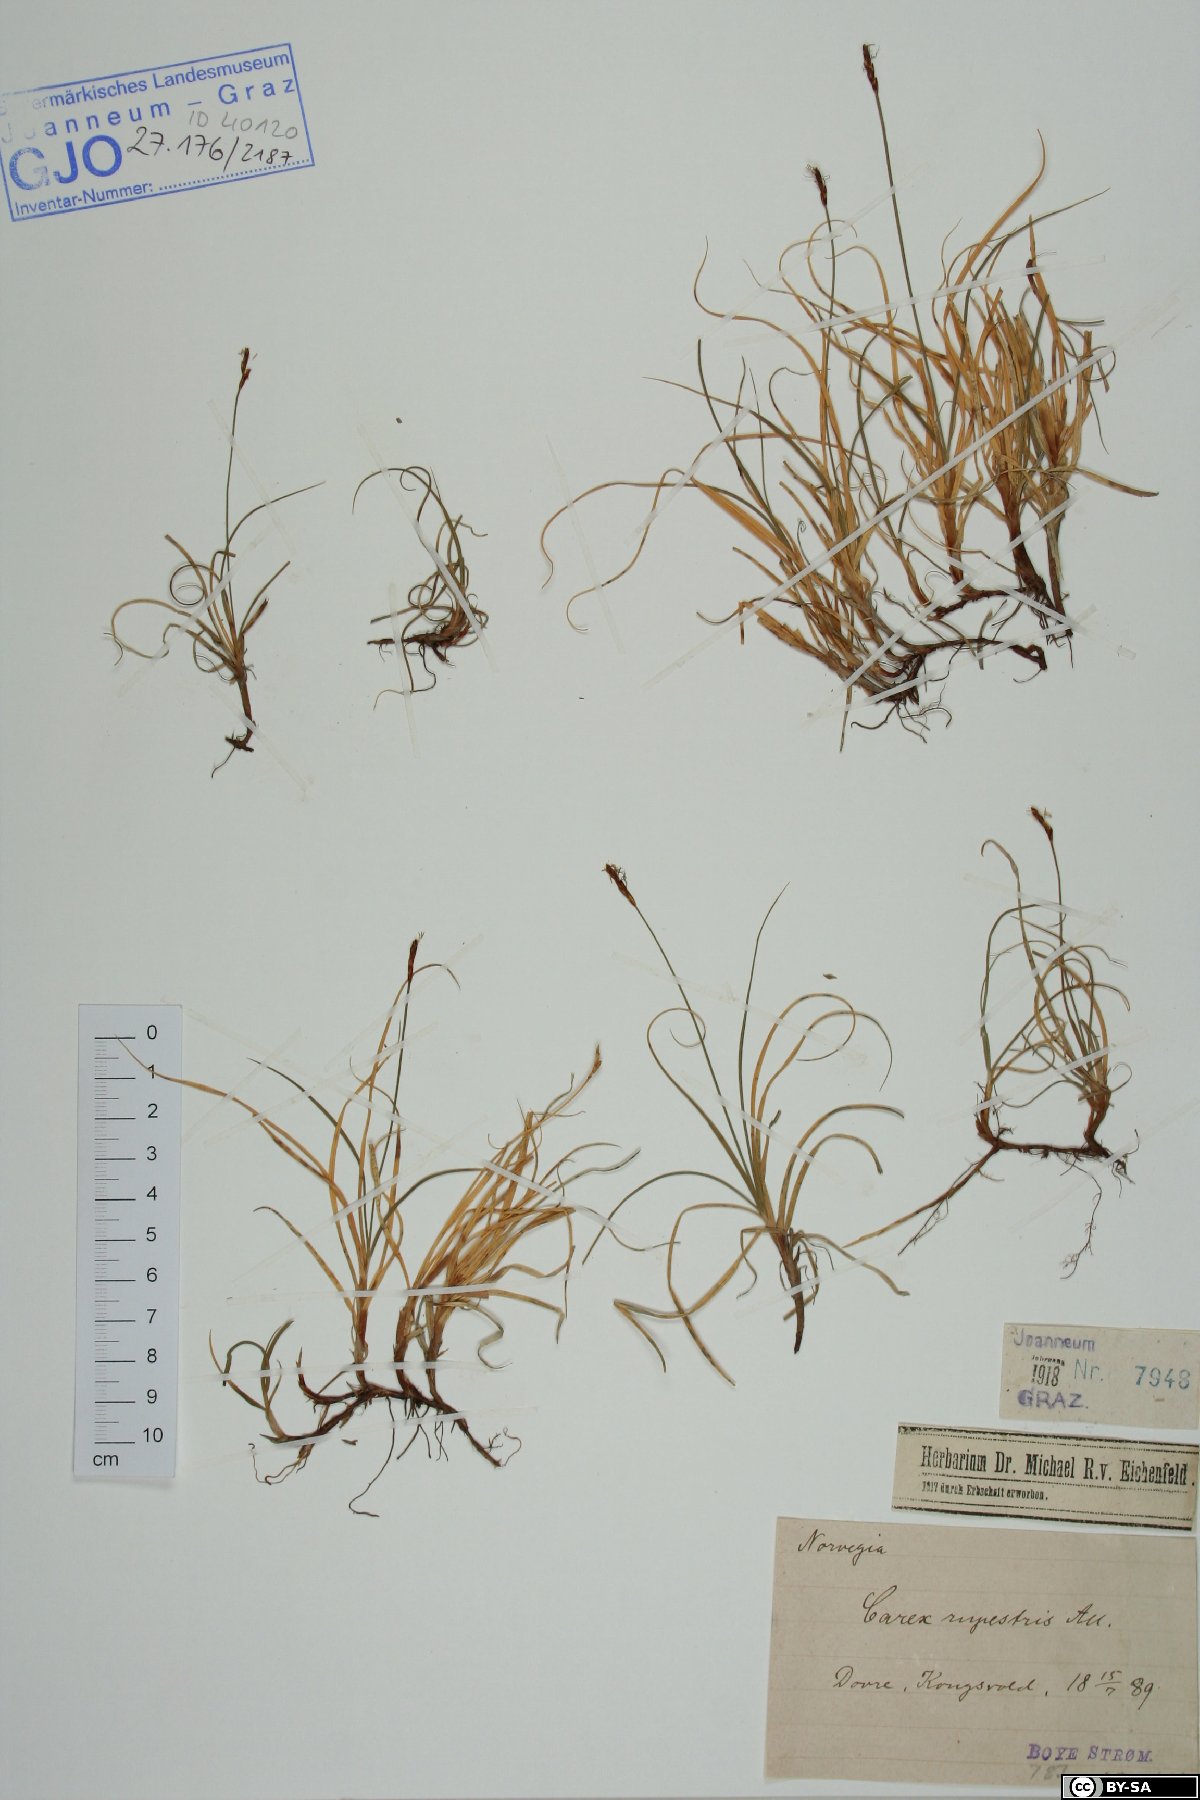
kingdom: Plantae
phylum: Tracheophyta
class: Liliopsida
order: Poales
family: Cyperaceae
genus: Carex
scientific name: Carex rupestris
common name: Rock sedge
